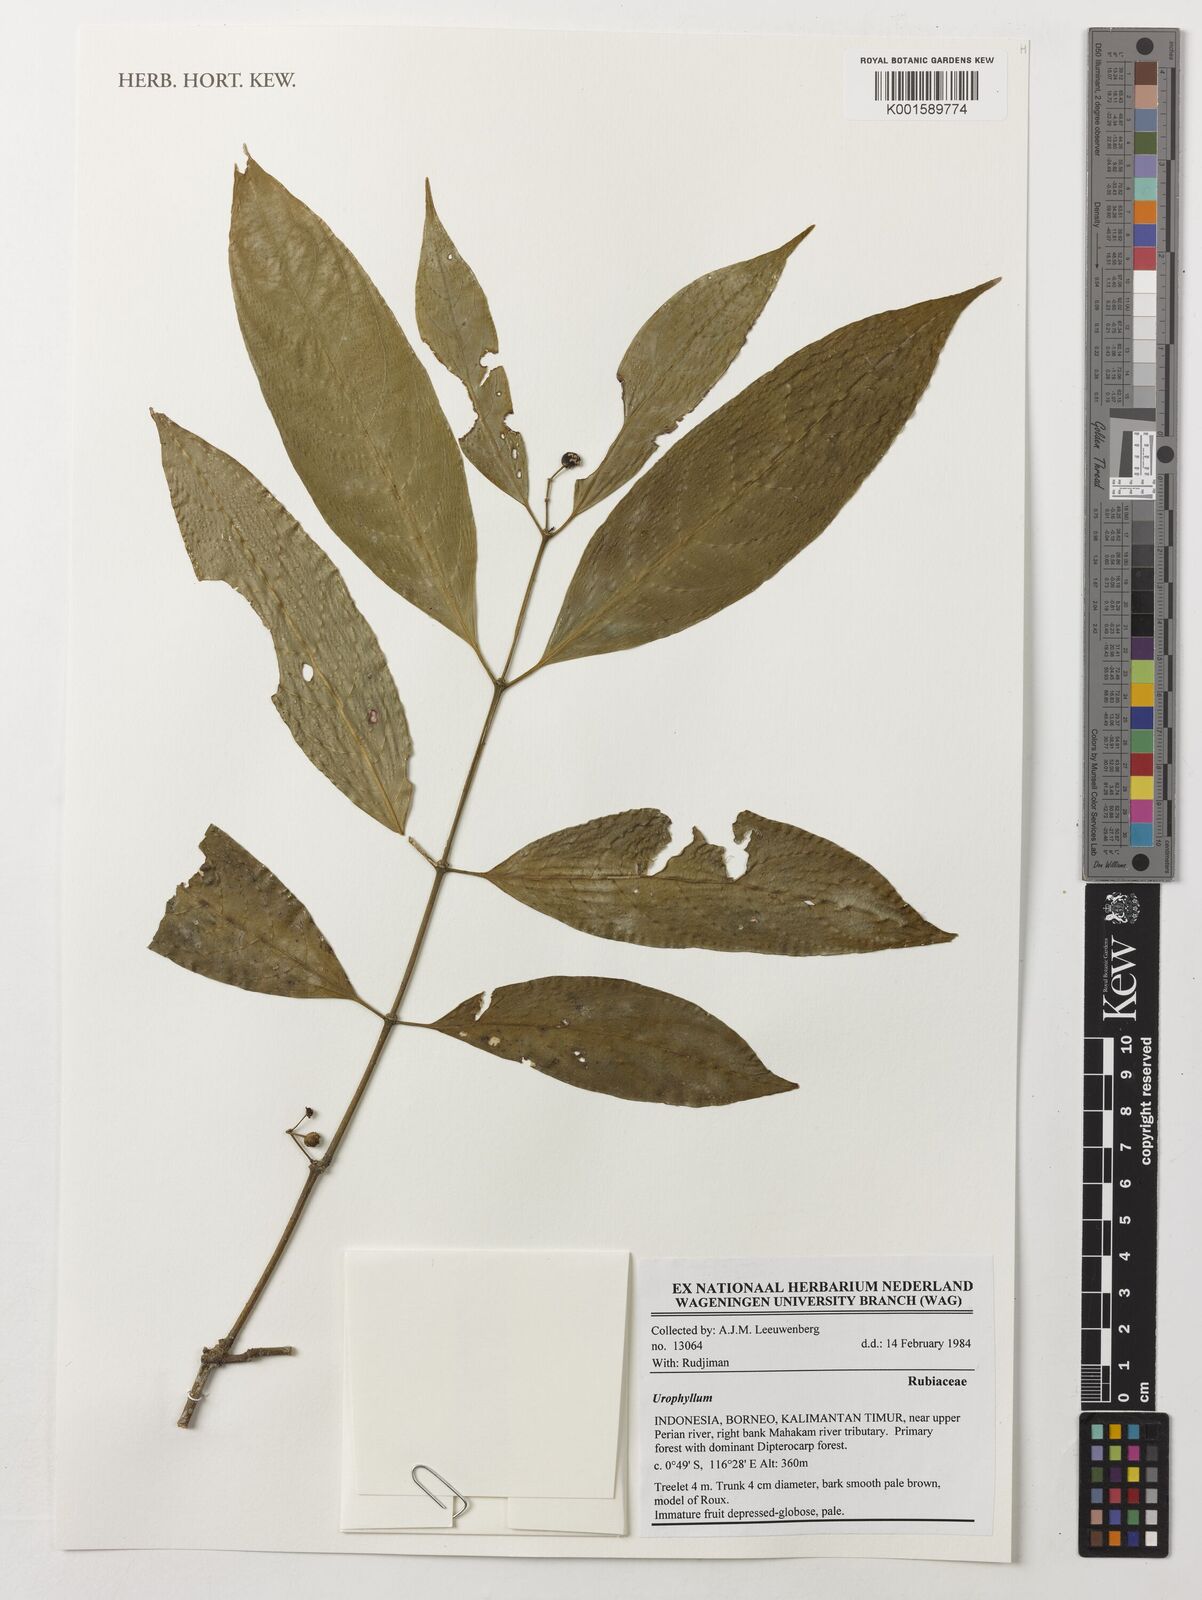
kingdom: Plantae
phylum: Tracheophyta
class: Magnoliopsida
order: Gentianales
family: Rubiaceae
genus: Urophyllum
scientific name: Urophyllum
